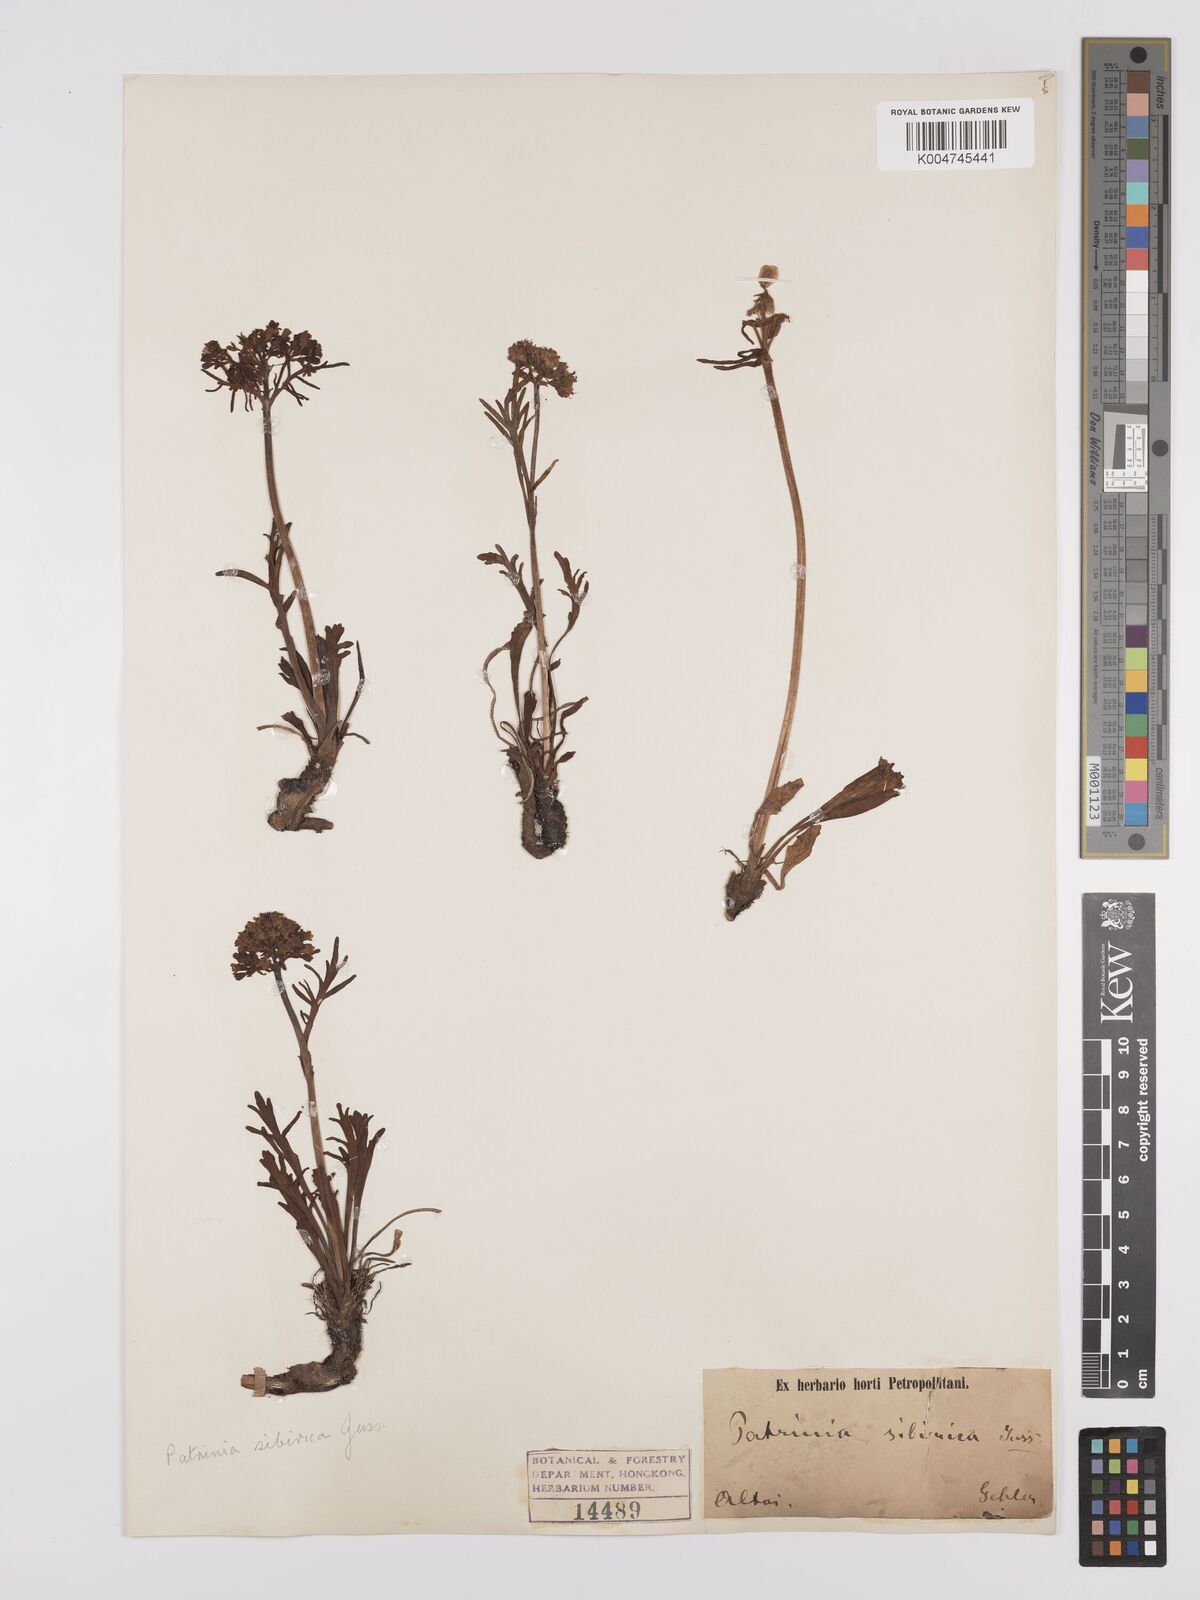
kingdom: Plantae
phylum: Tracheophyta
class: Magnoliopsida
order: Dipsacales
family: Caprifoliaceae
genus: Patrinia
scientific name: Patrinia sibirica
